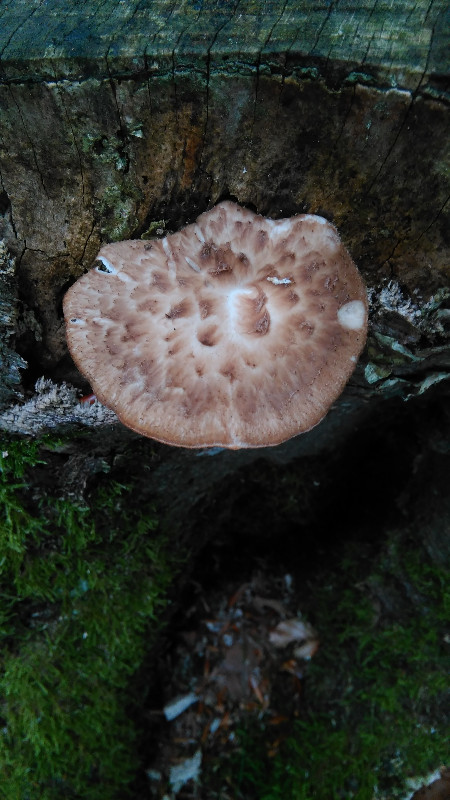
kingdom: Fungi
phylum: Basidiomycota
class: Agaricomycetes
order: Polyporales
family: Polyporaceae
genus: Polyporus
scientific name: Polyporus tuberaster
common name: knoldet stilkporesvamp
